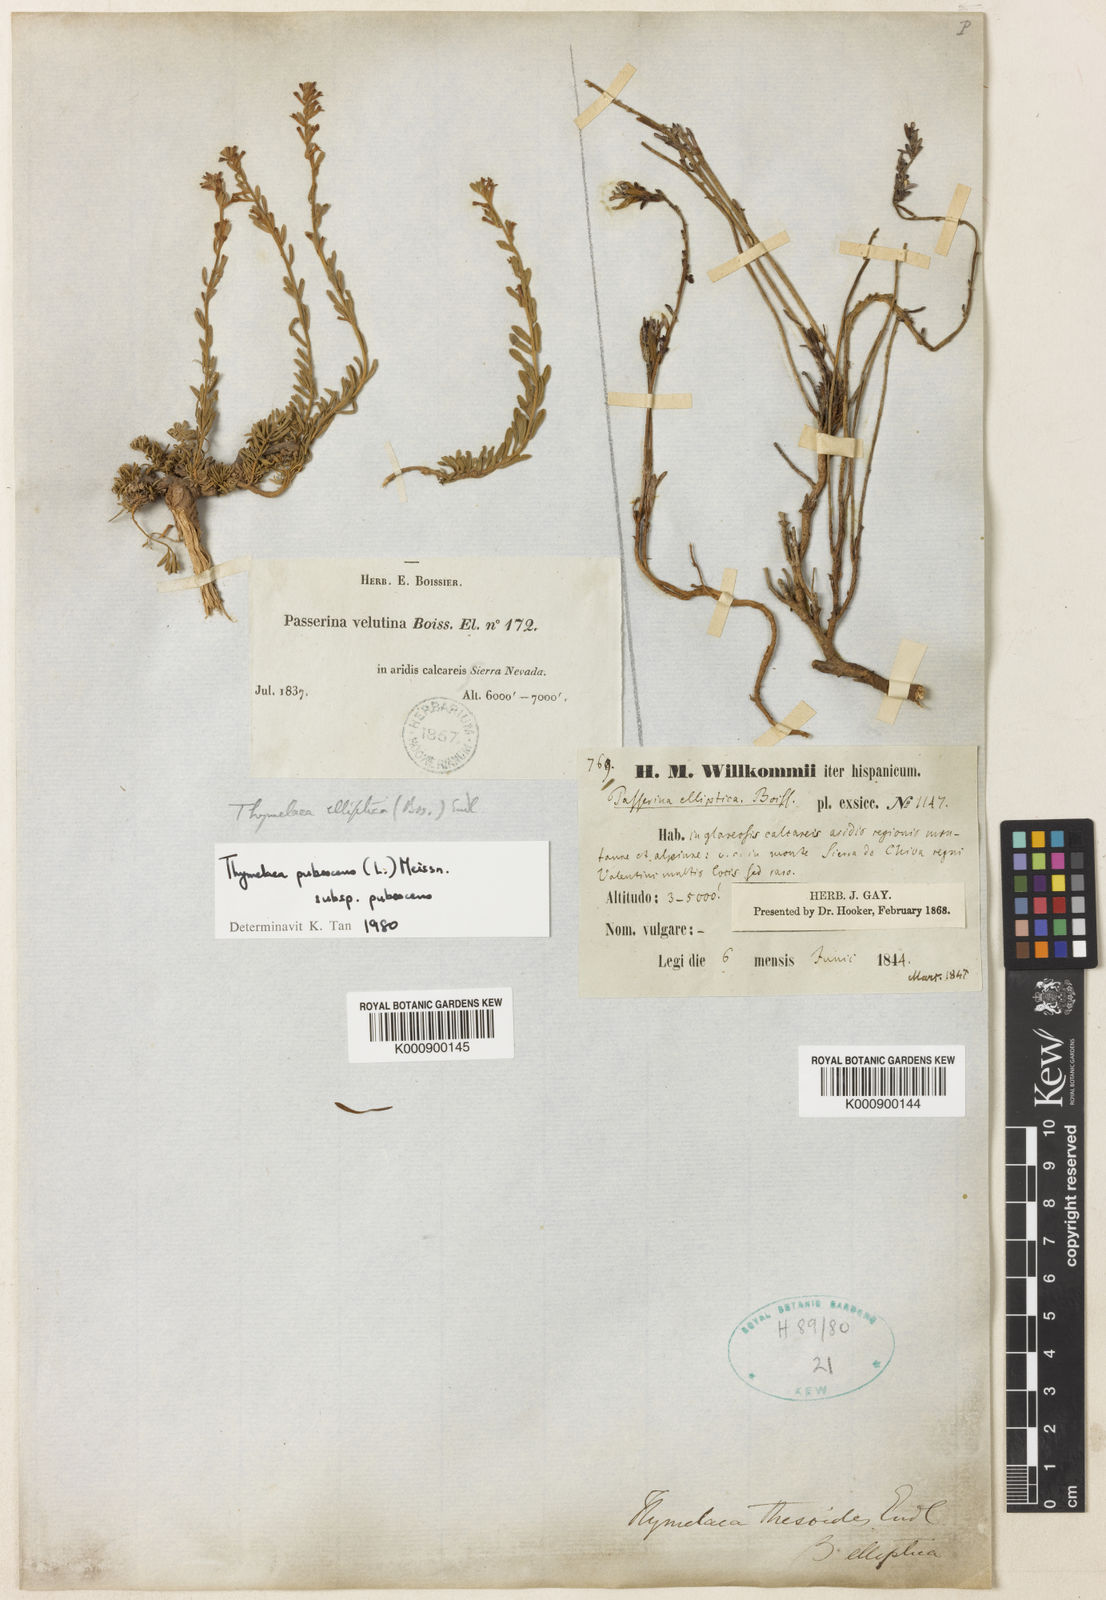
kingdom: Plantae
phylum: Tracheophyta
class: Magnoliopsida
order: Malvales
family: Thymelaeaceae
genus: Thymelaea
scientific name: Thymelaea pubescens
